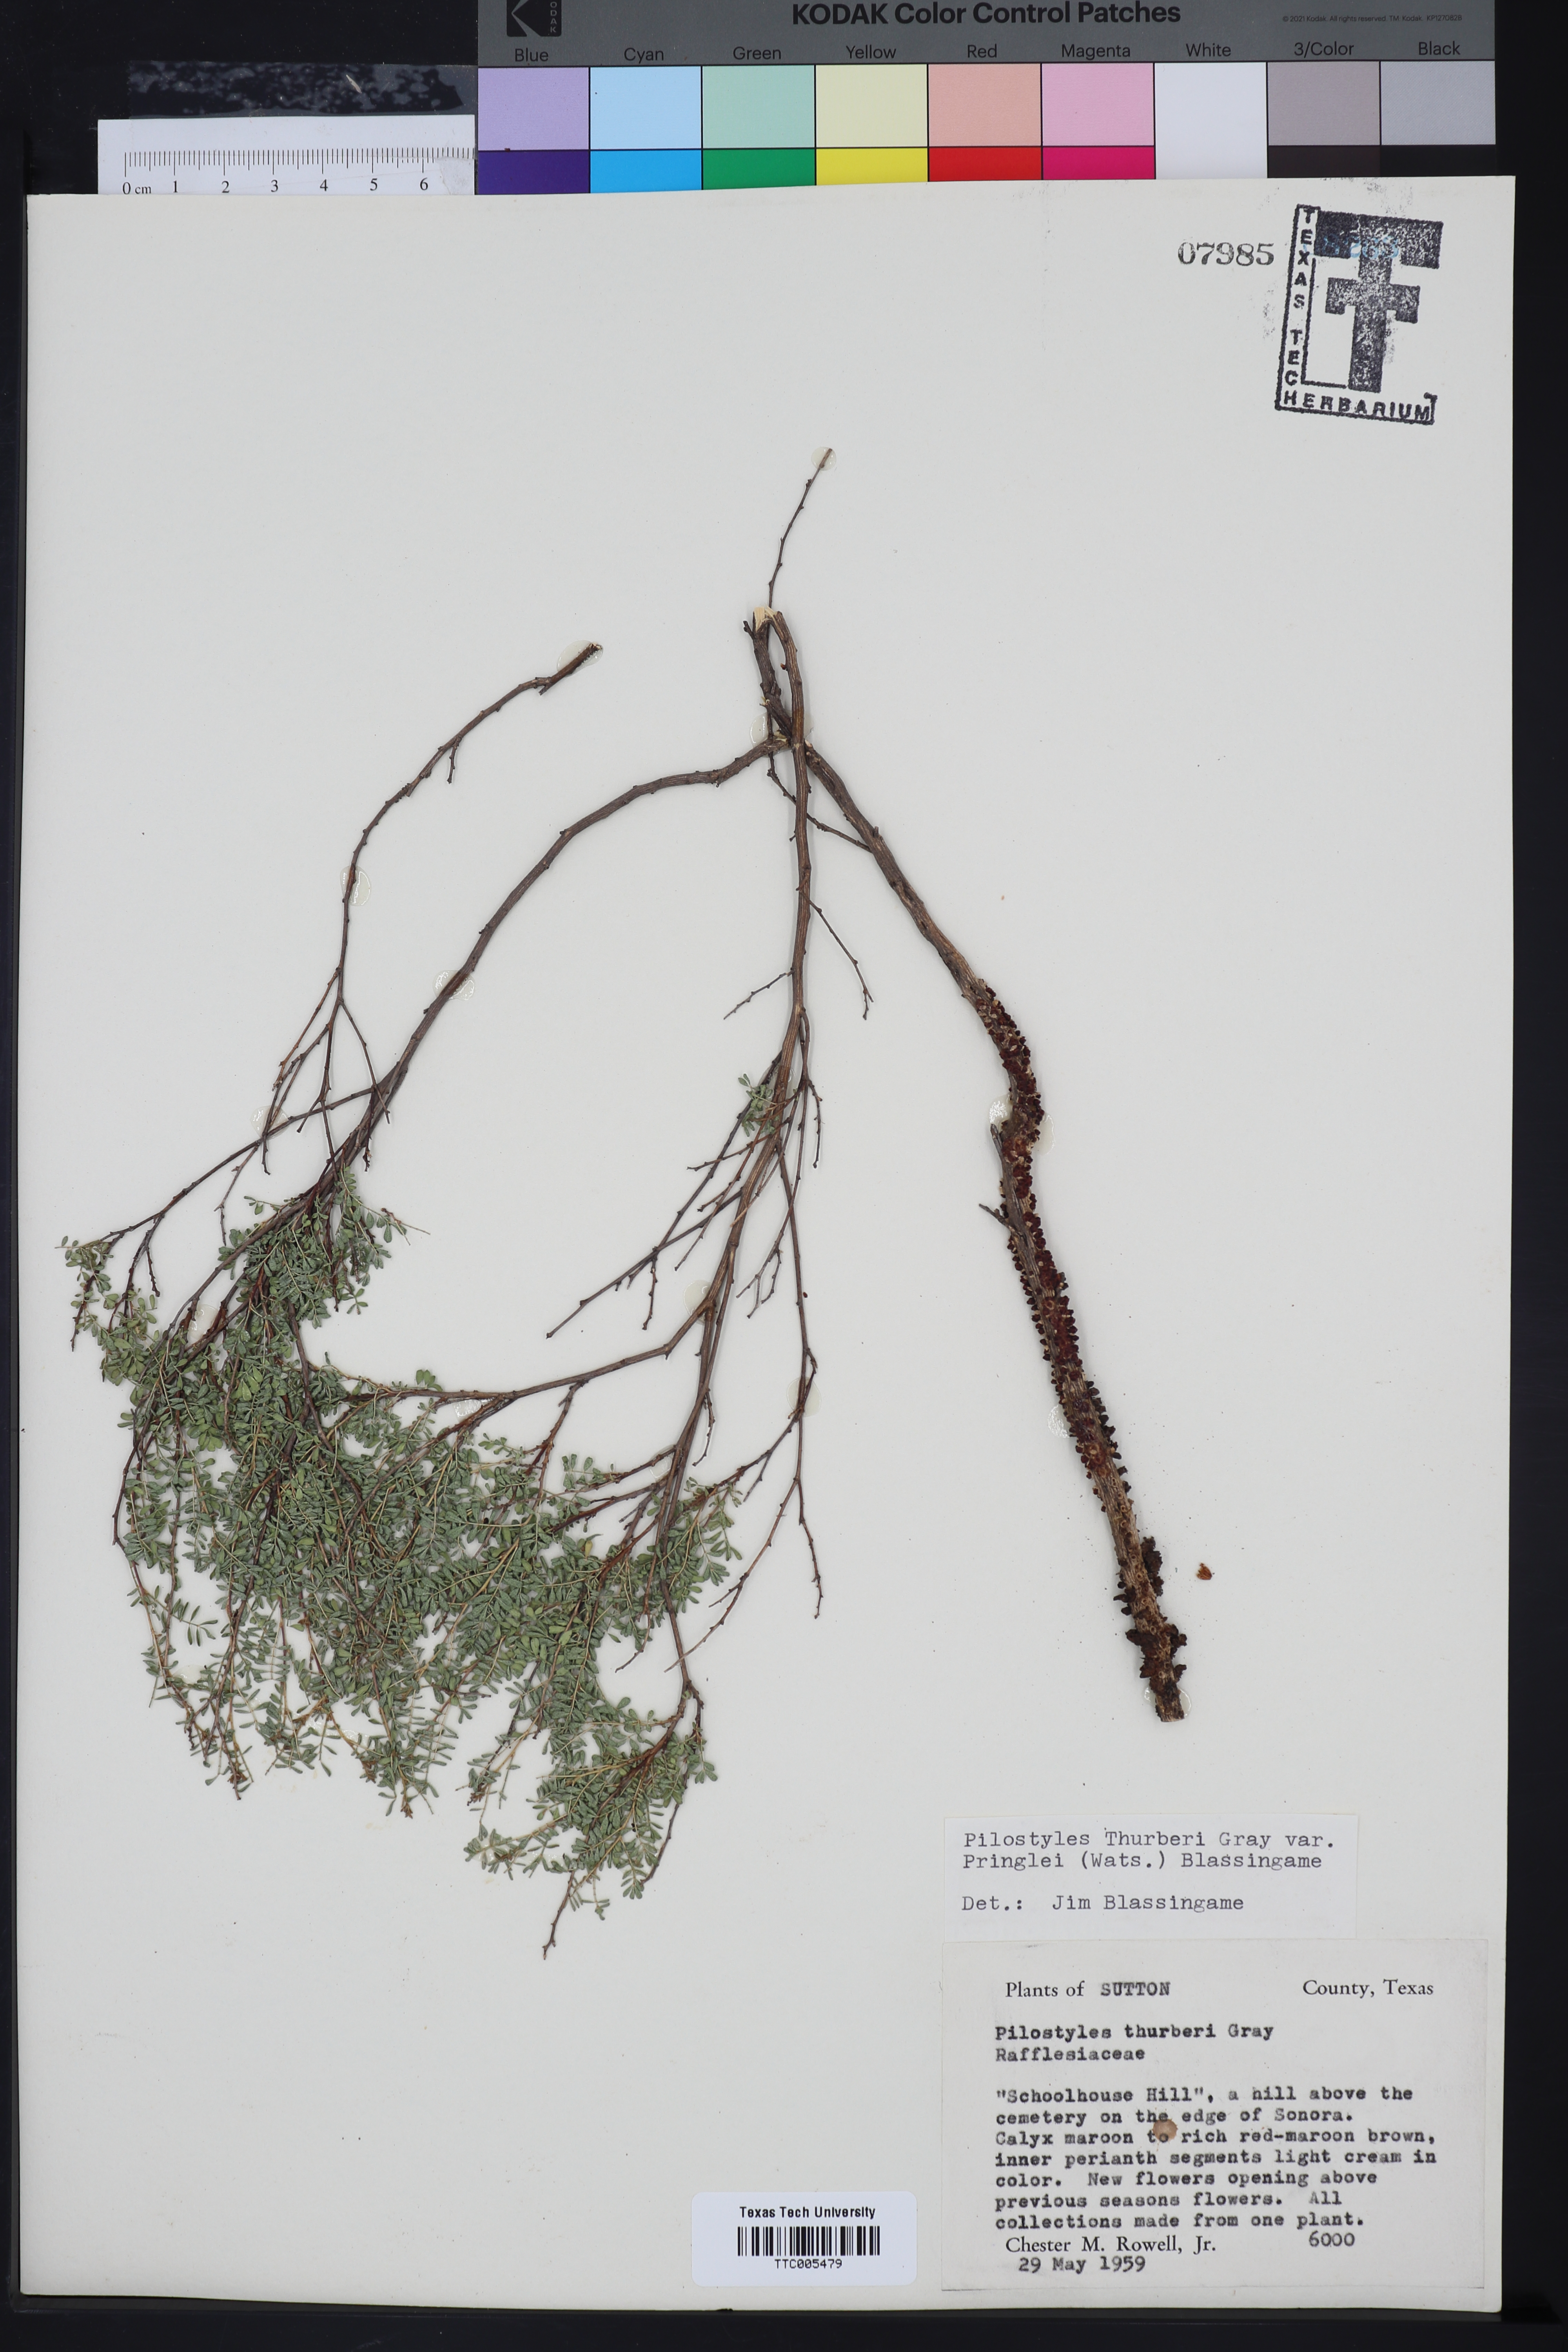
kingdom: Plantae
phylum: Tracheophyta
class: Magnoliopsida
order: Cucurbitales
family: Apodanthaceae
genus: Pilostyles
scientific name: Pilostyles thurberi
